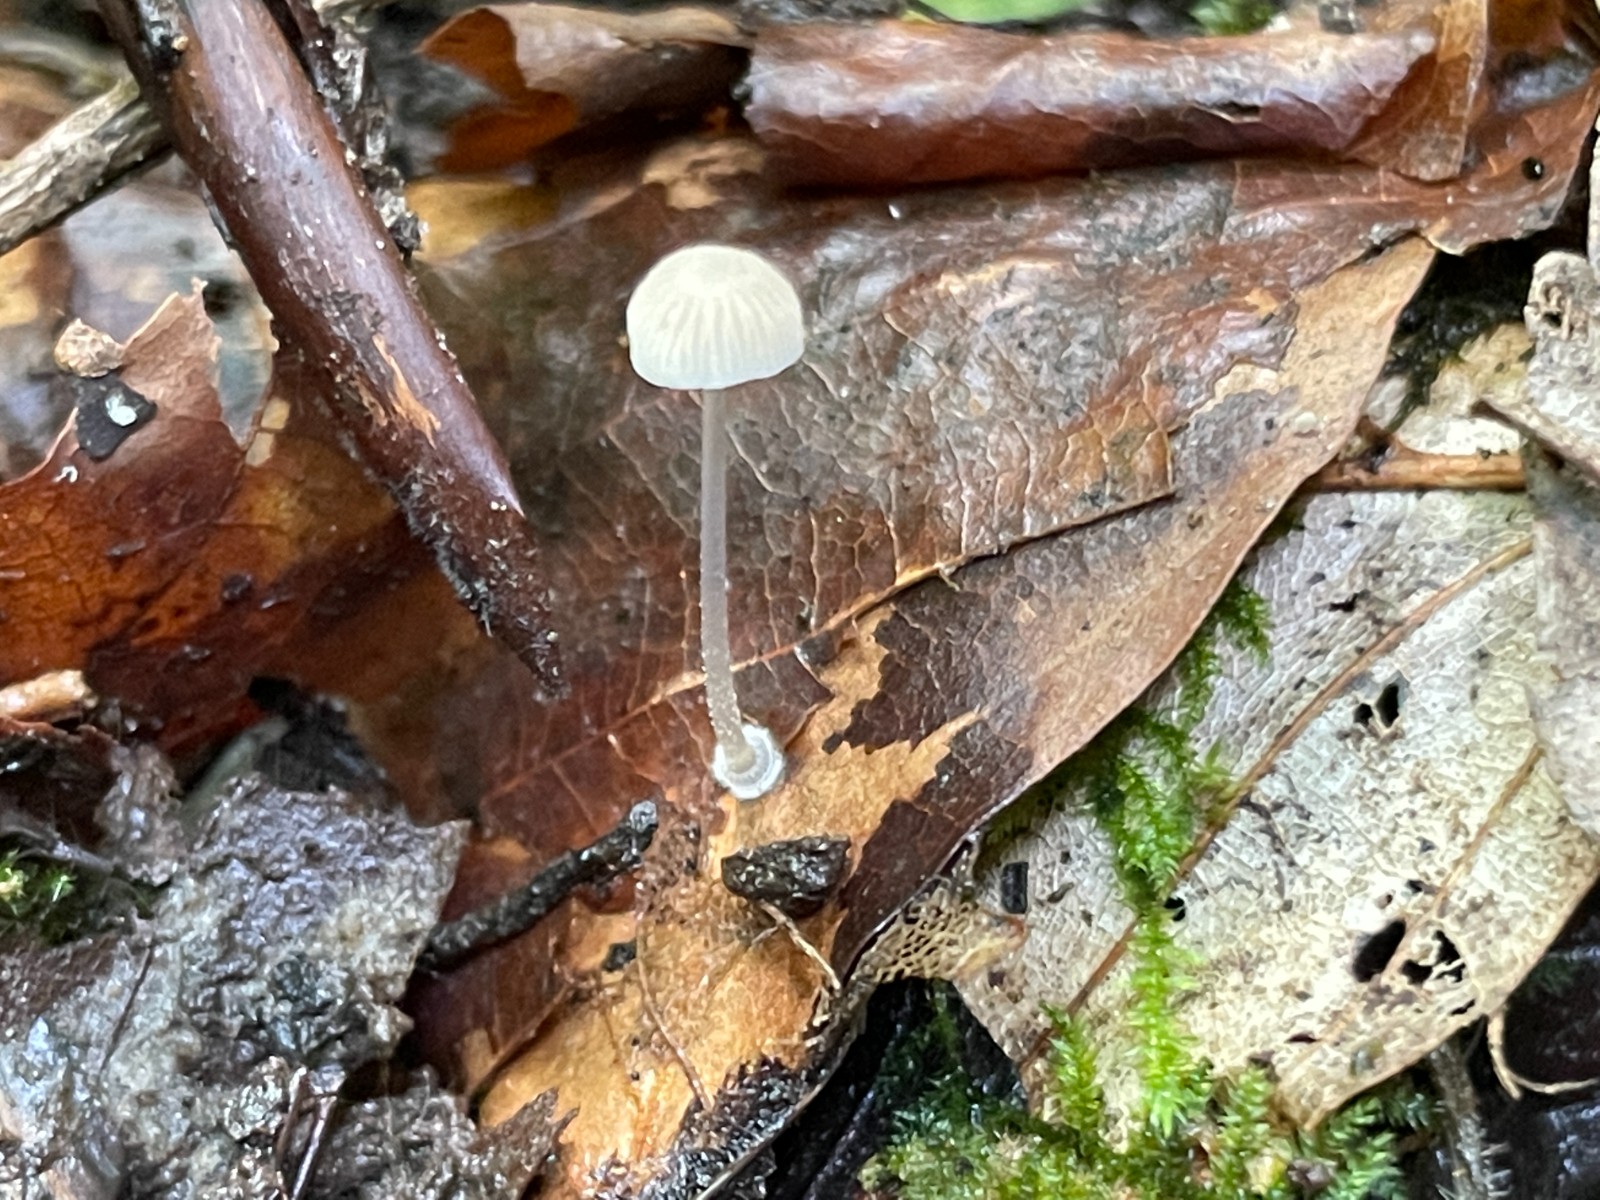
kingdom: Fungi
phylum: Basidiomycota
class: Agaricomycetes
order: Agaricales
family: Mycenaceae
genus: Mycena
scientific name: Mycena stylobates
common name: fureskivet huesvamp
